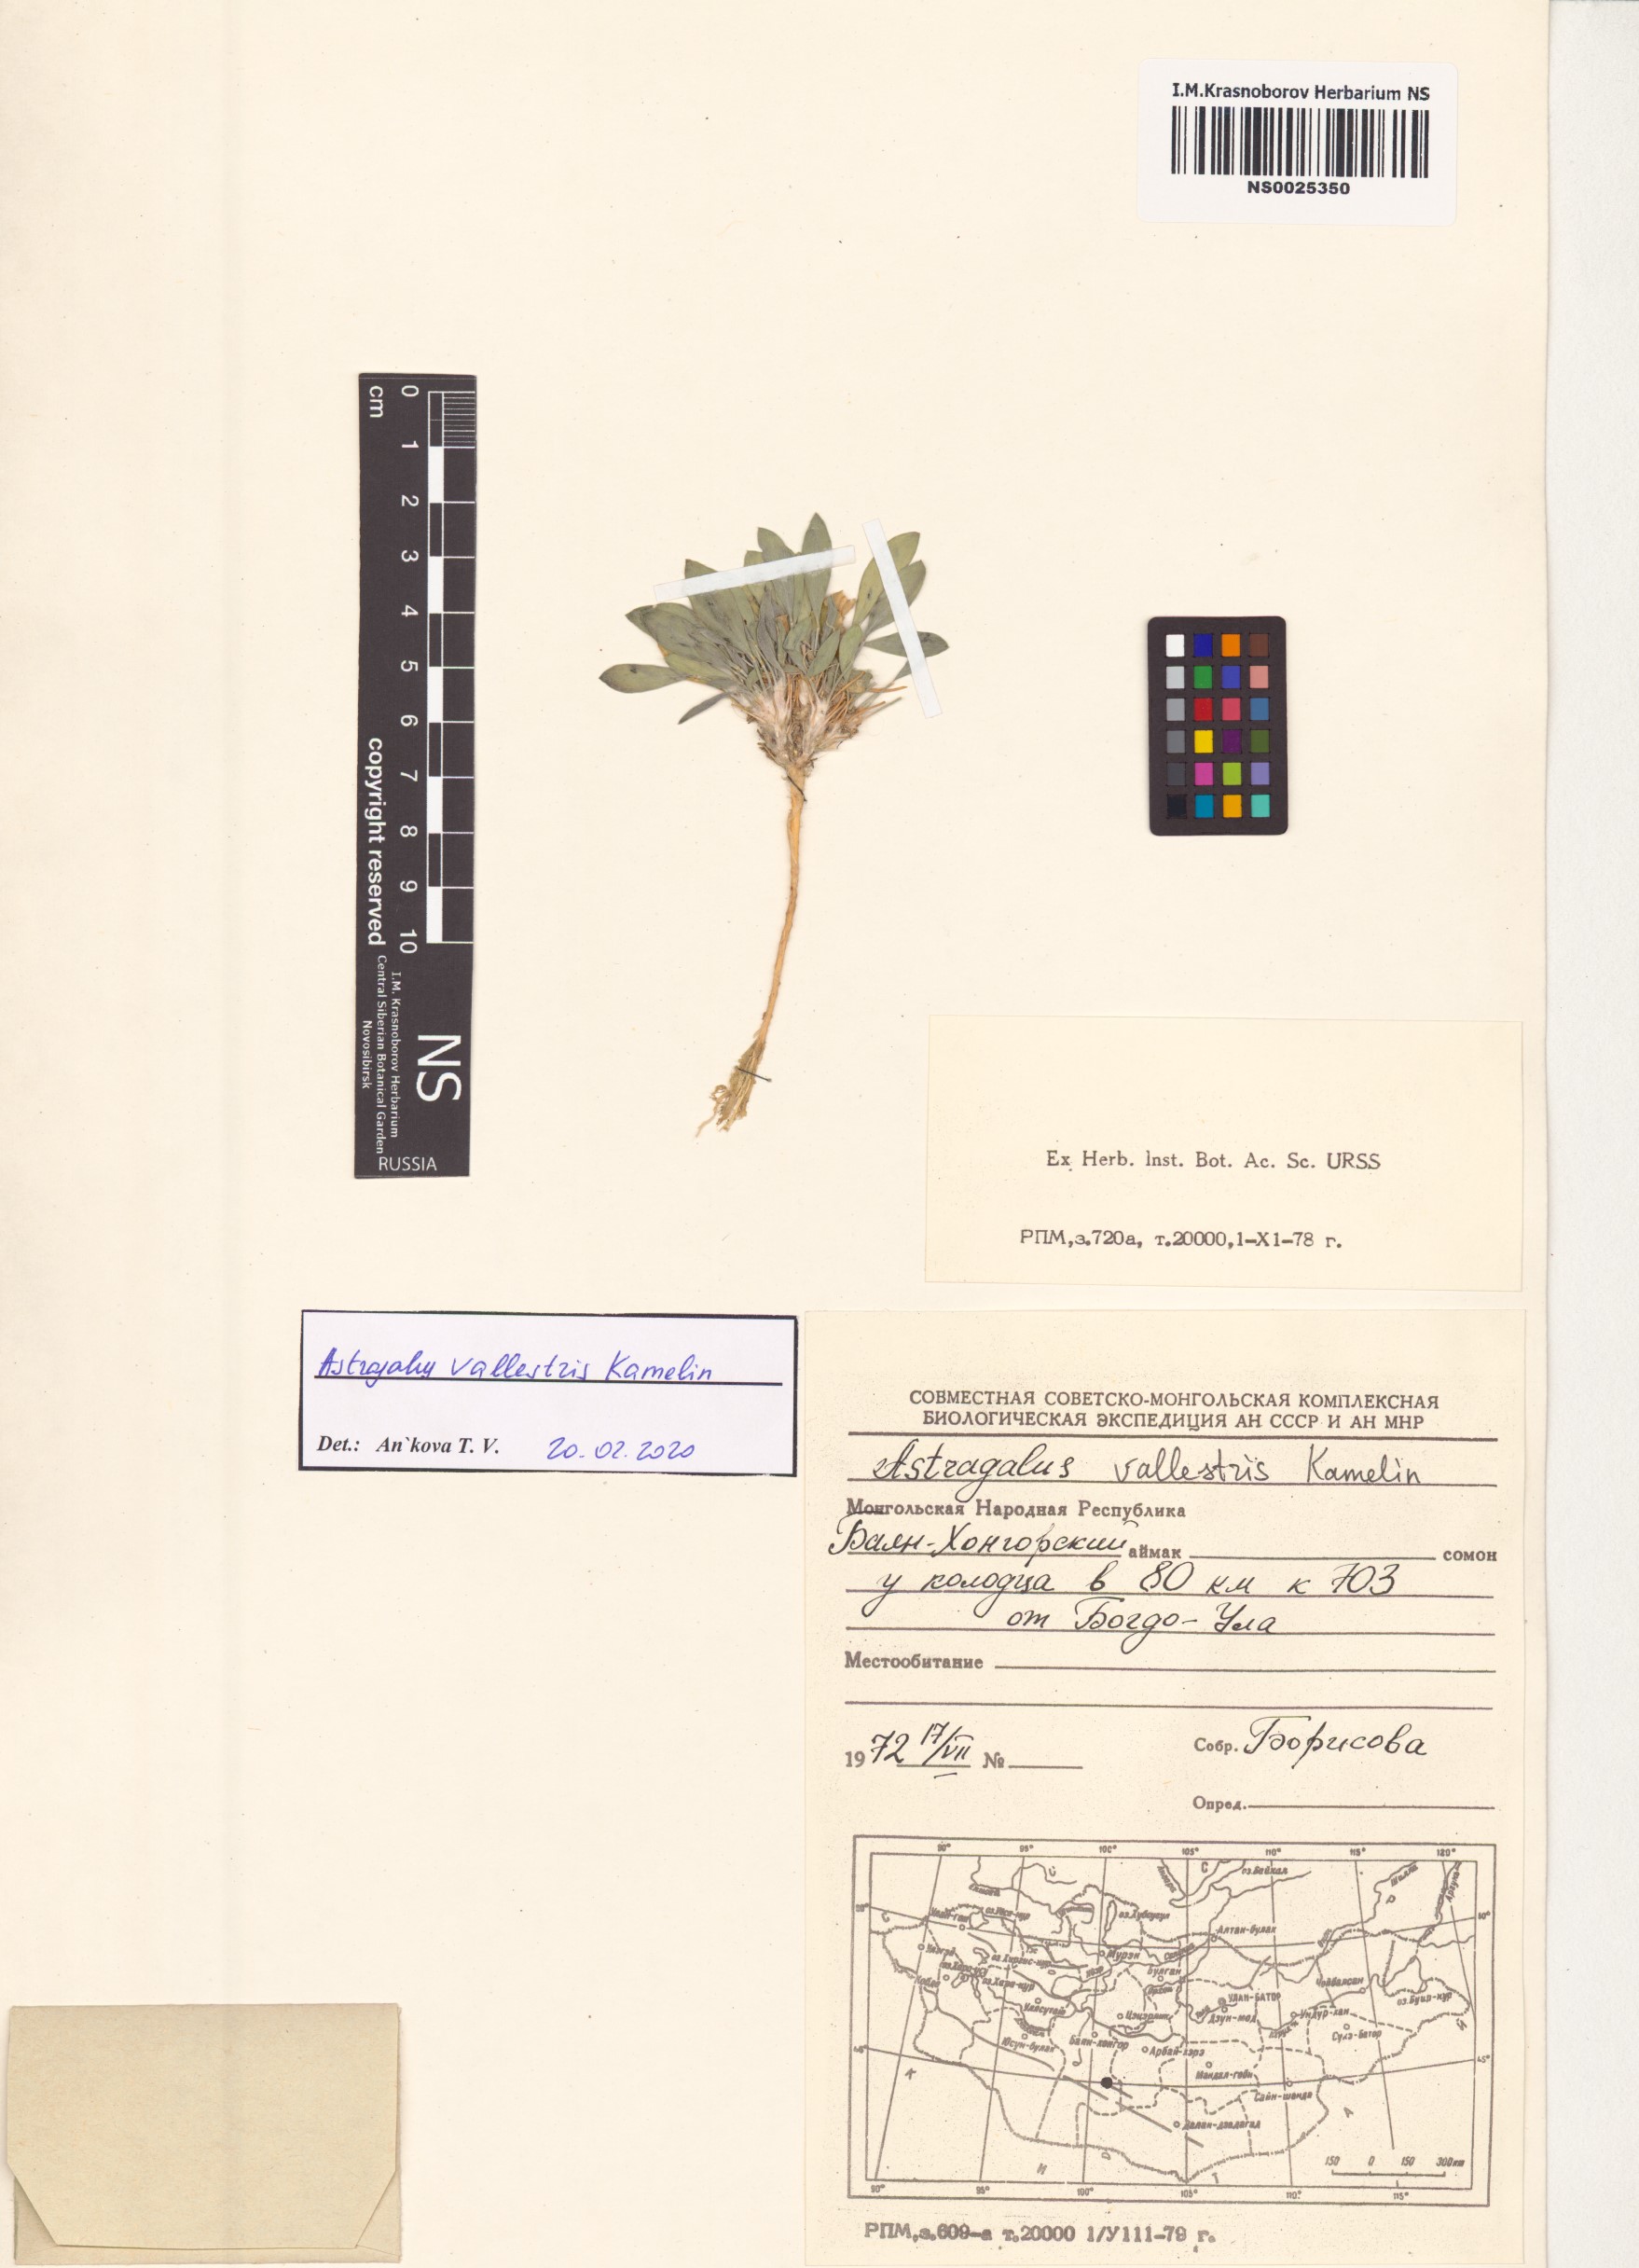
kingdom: Plantae
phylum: Tracheophyta
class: Magnoliopsida
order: Fabales
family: Fabaceae
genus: Astragalus
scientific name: Astragalus vallestris
